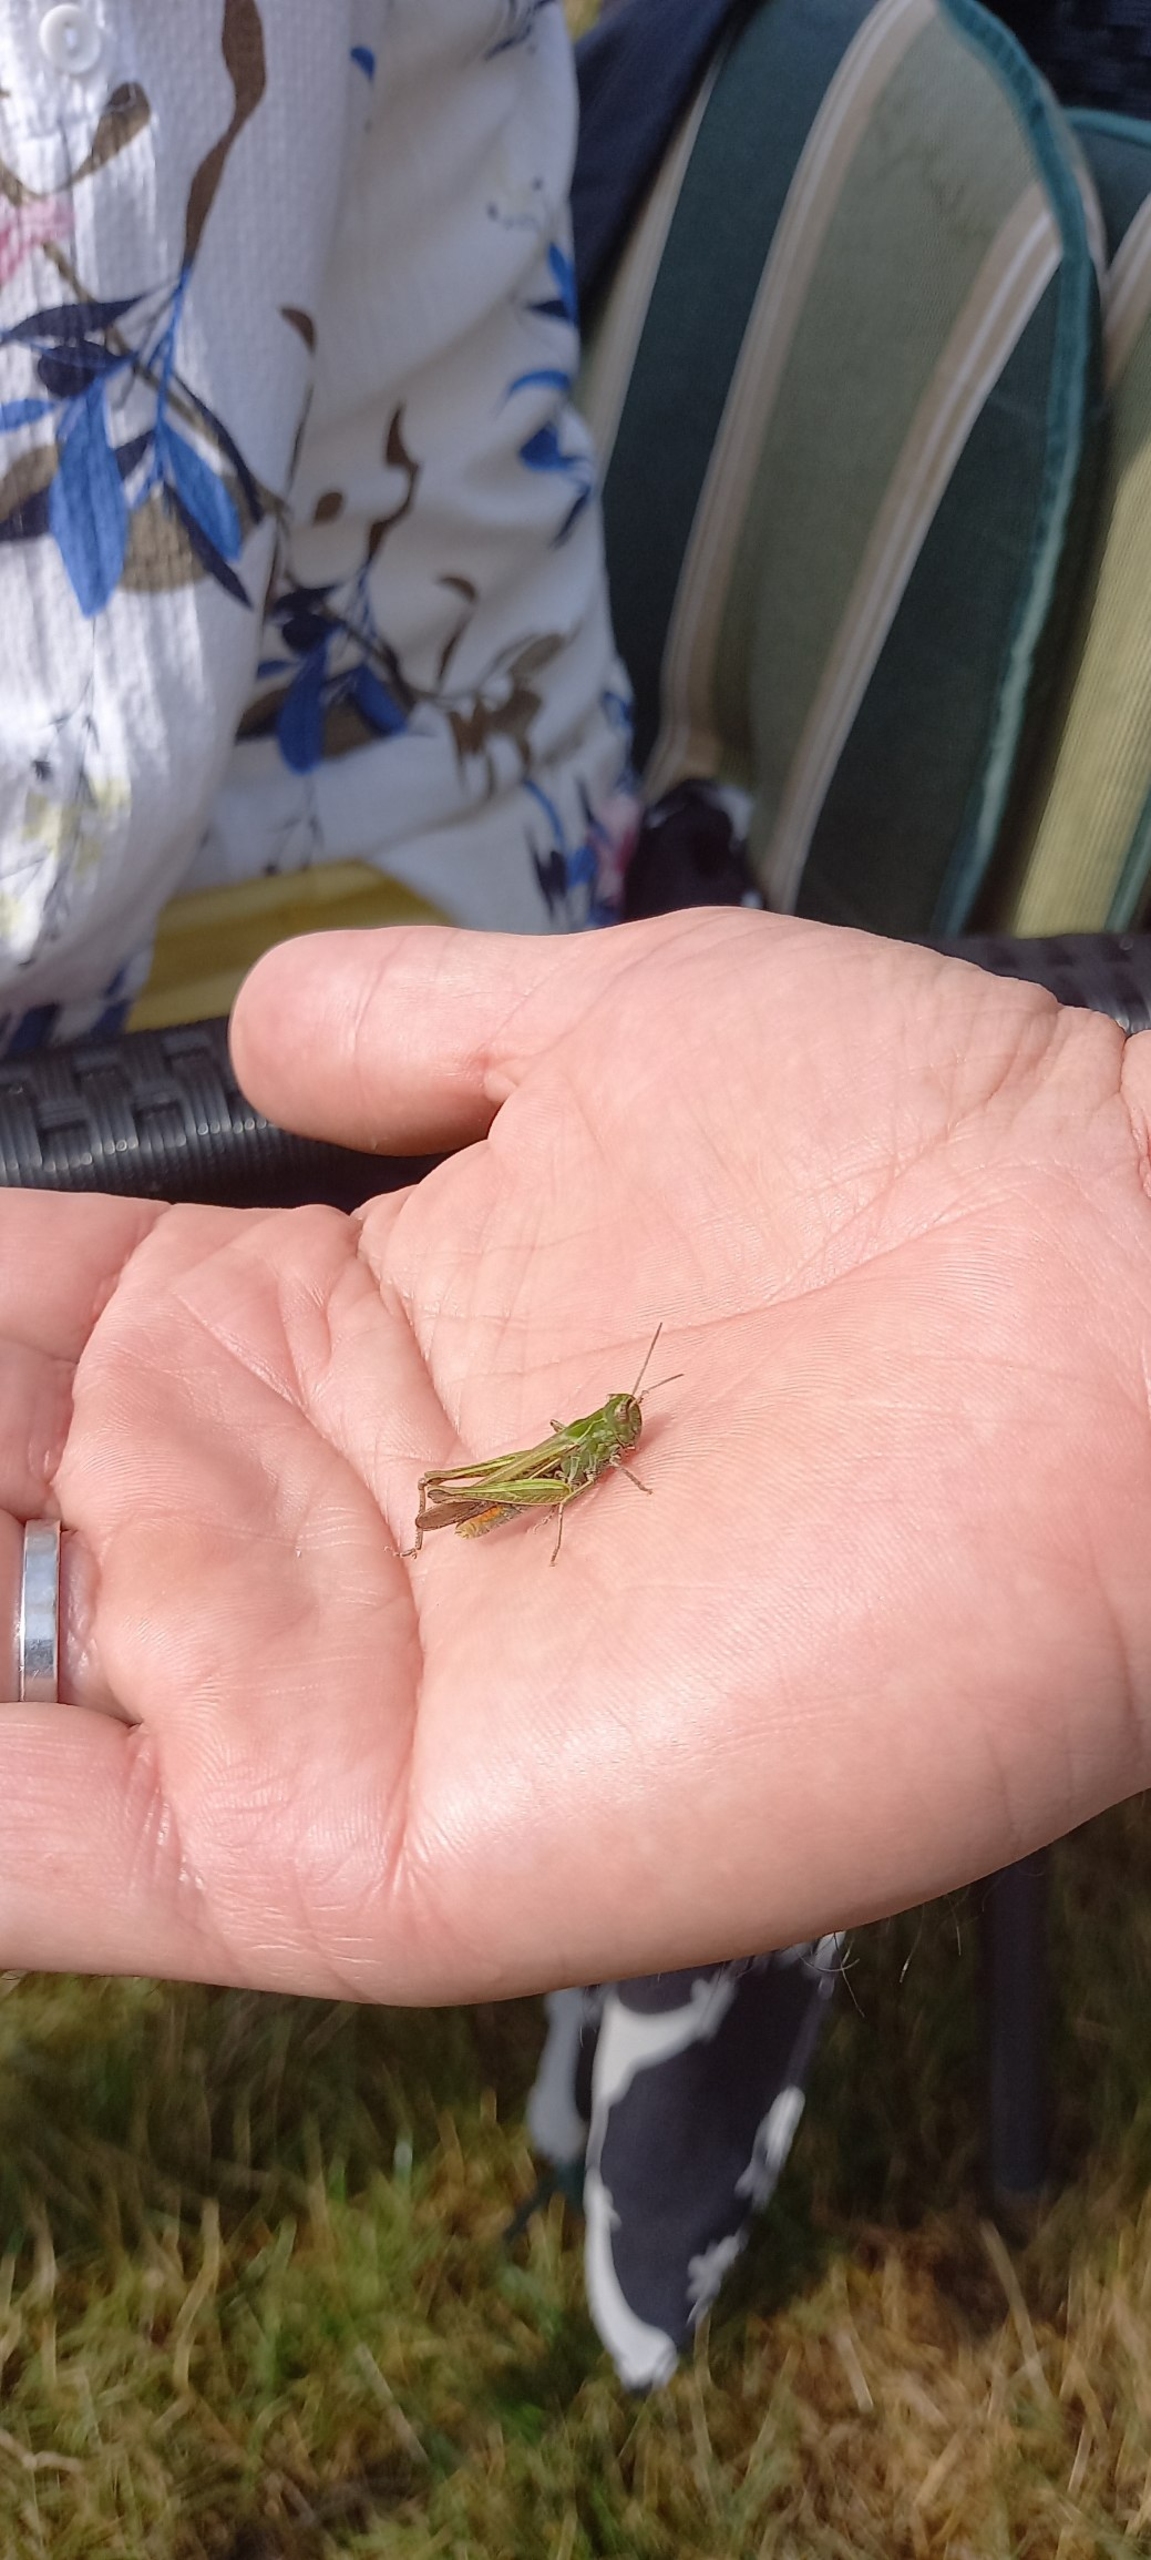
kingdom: Animalia
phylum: Arthropoda
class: Insecta
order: Orthoptera
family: Acrididae
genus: Chorthippus
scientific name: Chorthippus
